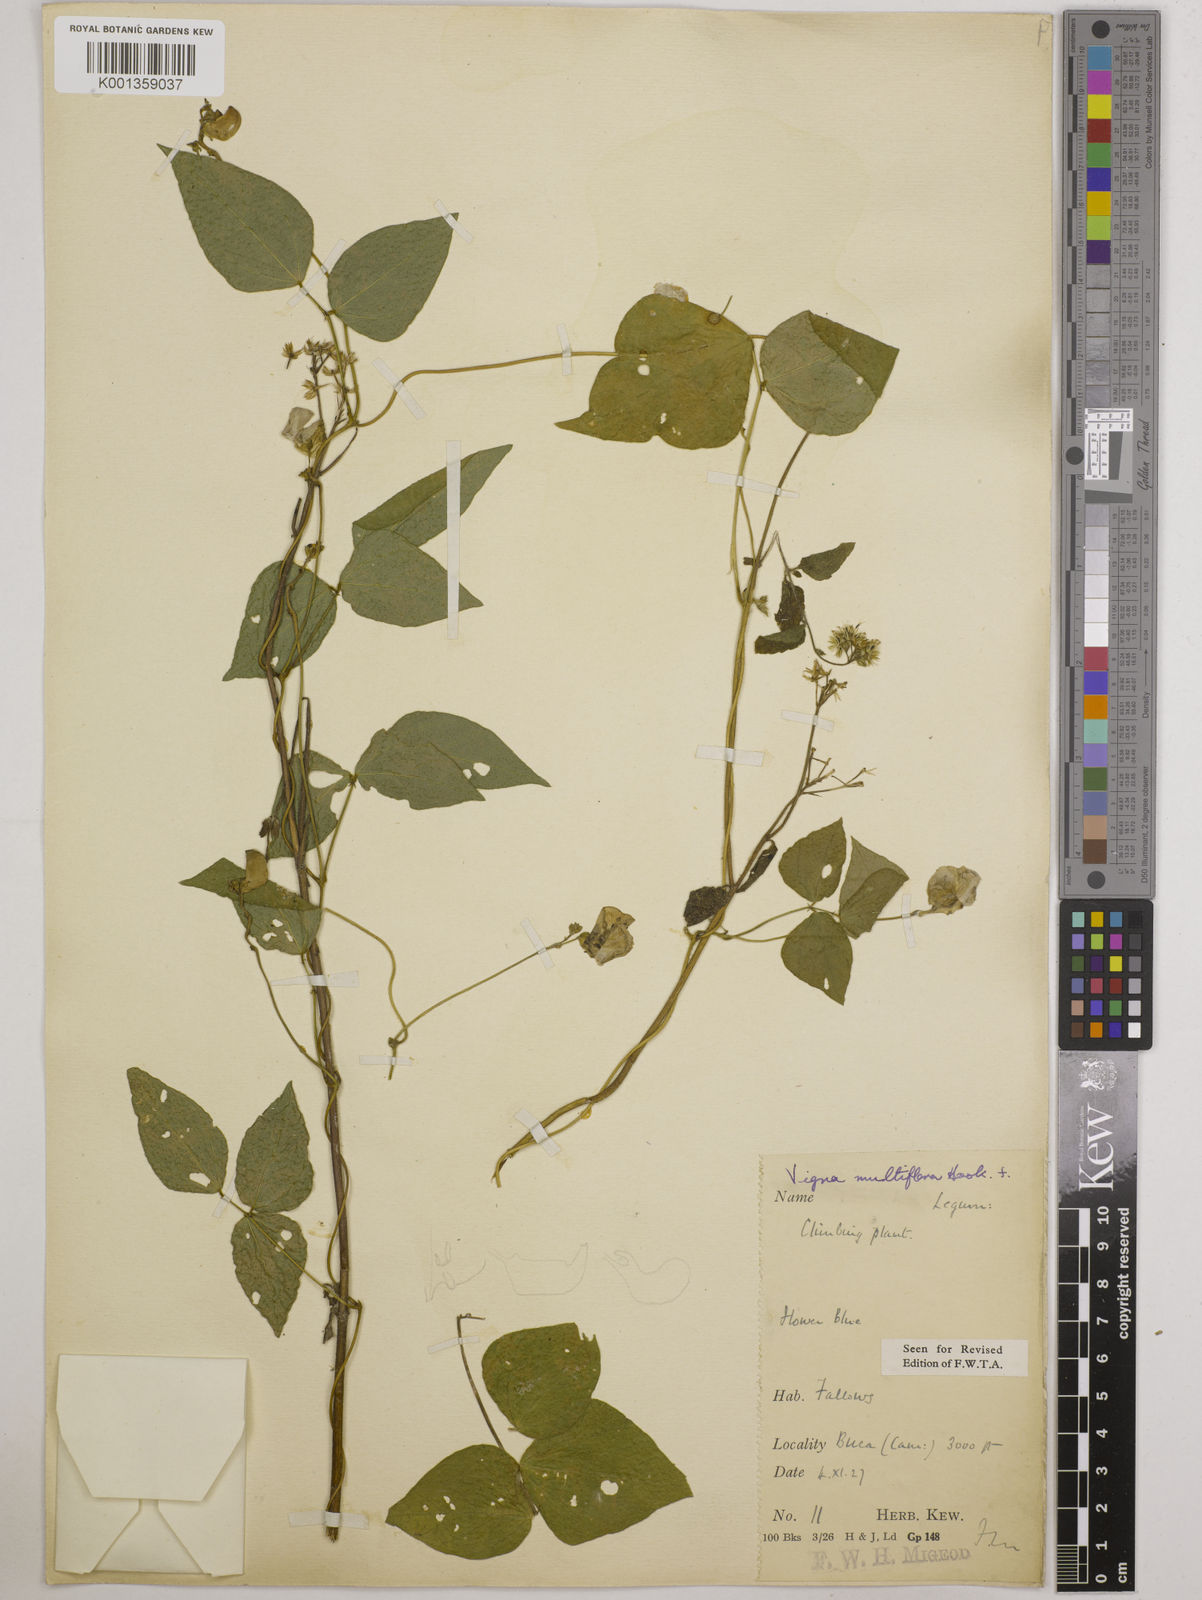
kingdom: Plantae
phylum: Tracheophyta
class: Magnoliopsida
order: Fabales
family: Fabaceae
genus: Vigna
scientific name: Vigna gracilis
